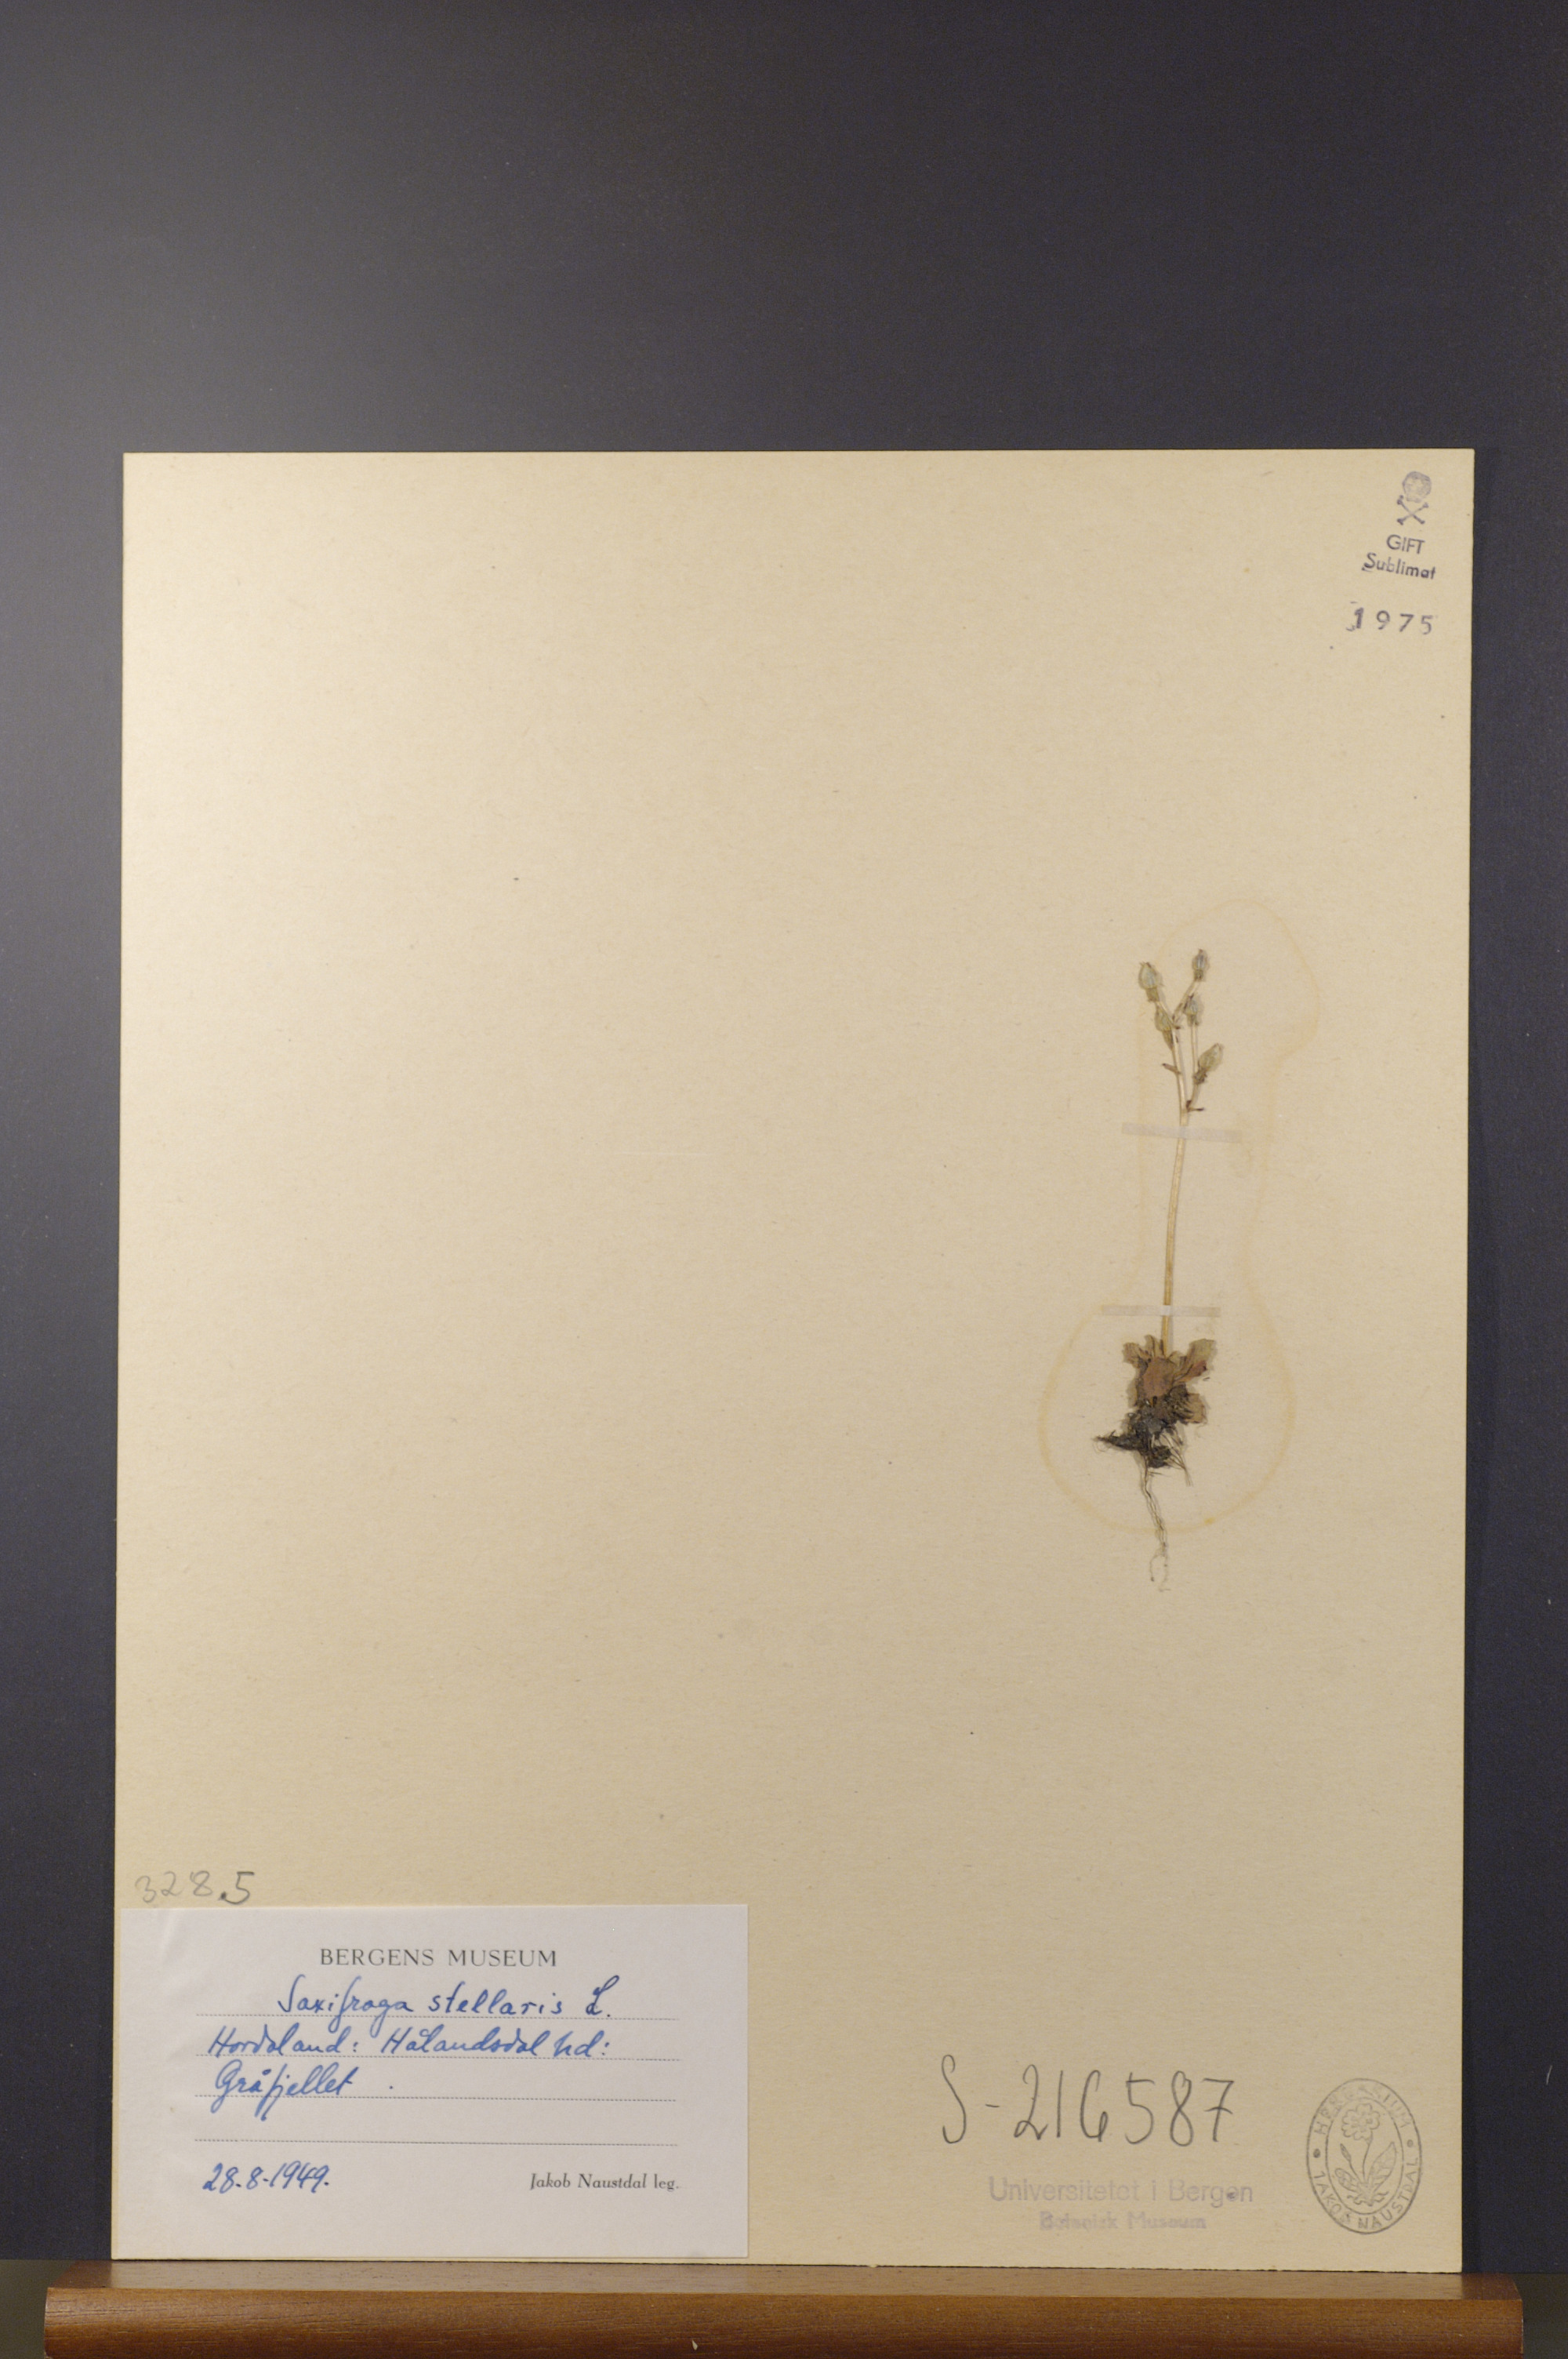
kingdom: Plantae
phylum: Tracheophyta
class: Magnoliopsida
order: Saxifragales
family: Saxifragaceae
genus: Micranthes
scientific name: Micranthes stellaris
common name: Starry saxifrage
